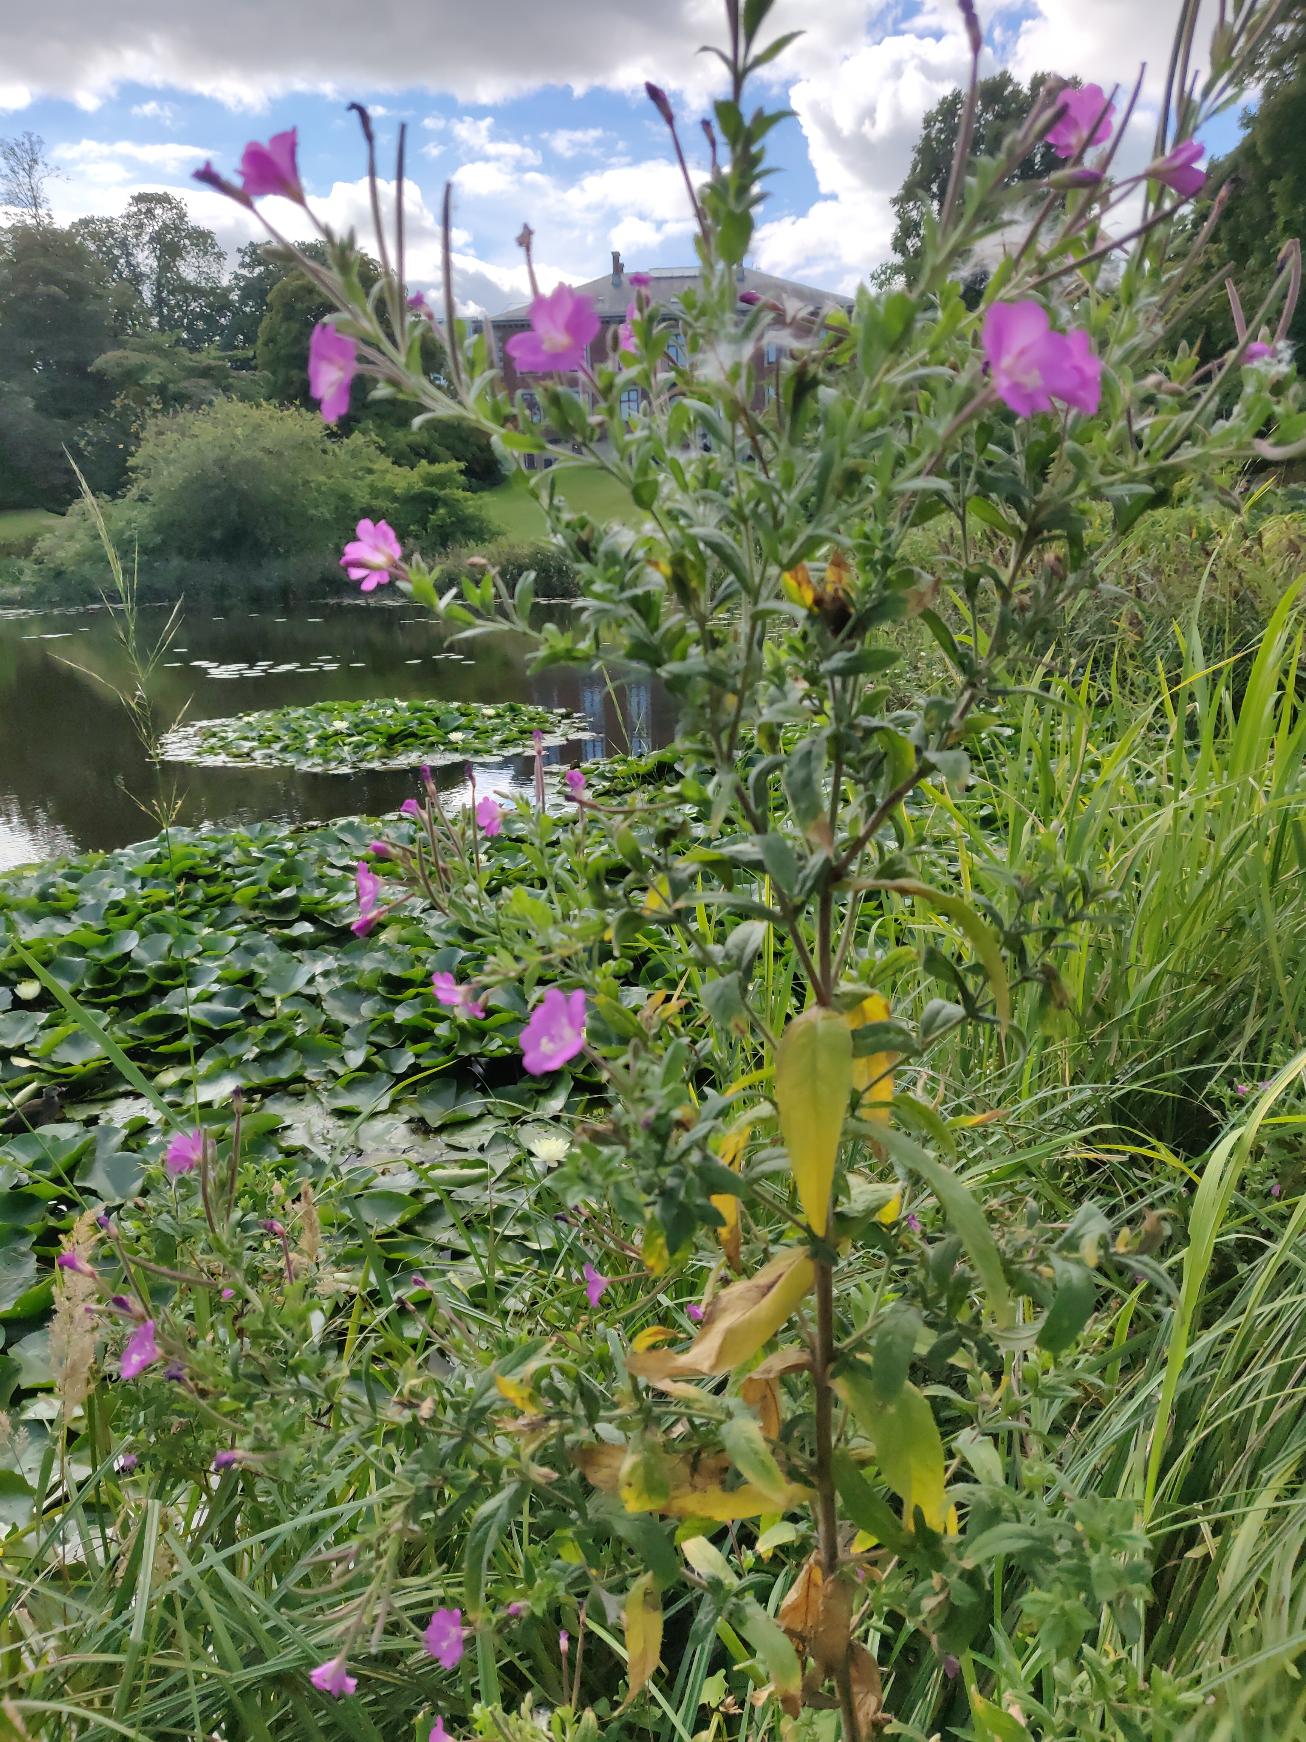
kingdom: Plantae
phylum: Tracheophyta
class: Magnoliopsida
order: Myrtales
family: Onagraceae
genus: Epilobium
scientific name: Epilobium hirsutum
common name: Lådden dueurt
